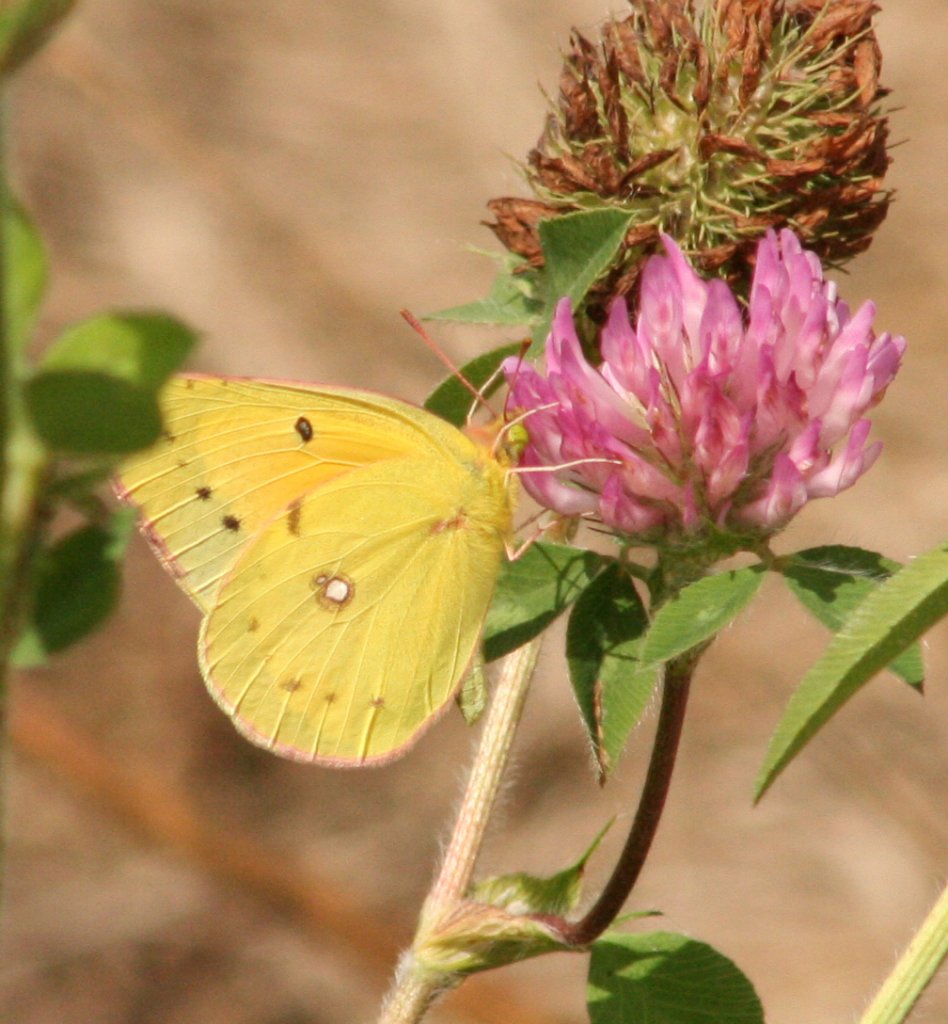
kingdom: Animalia
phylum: Arthropoda
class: Insecta
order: Lepidoptera
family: Pieridae
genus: Colias
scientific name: Colias eurytheme
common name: Orange Sulphur
